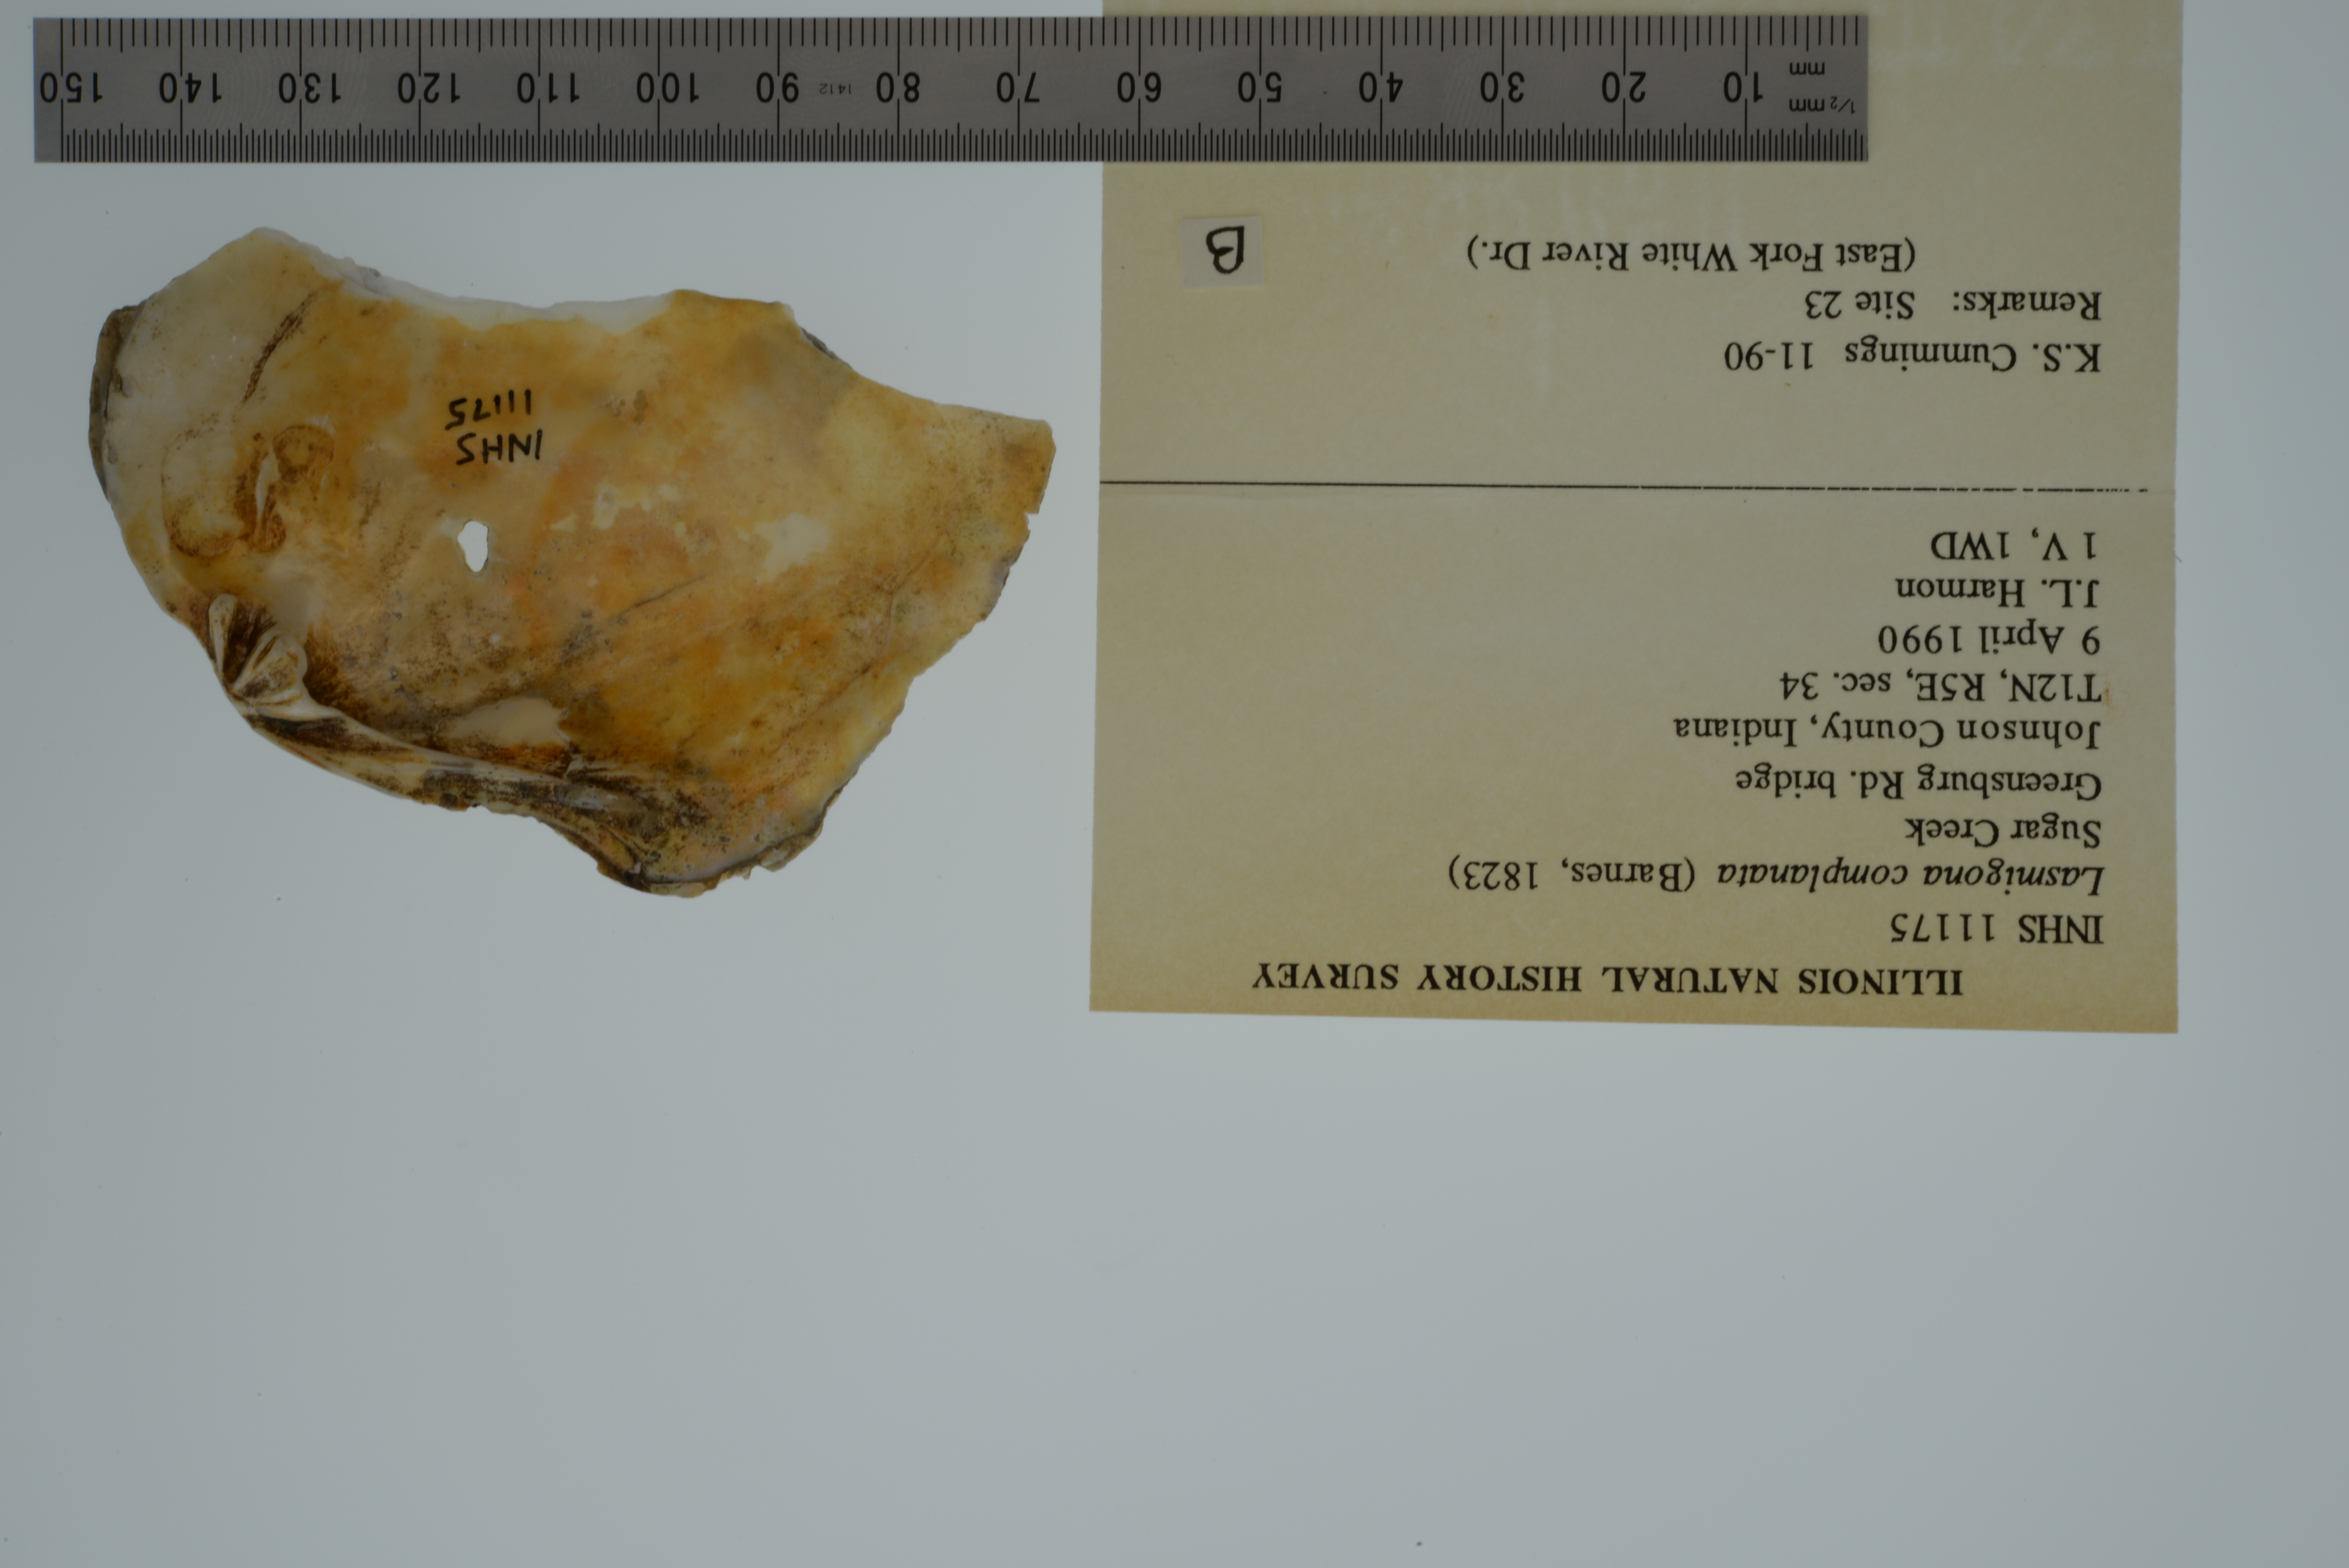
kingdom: Animalia
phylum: Mollusca
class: Bivalvia
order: Unionida
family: Unionidae
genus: Lasmigona
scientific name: Lasmigona complanata
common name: White heelsplitter
